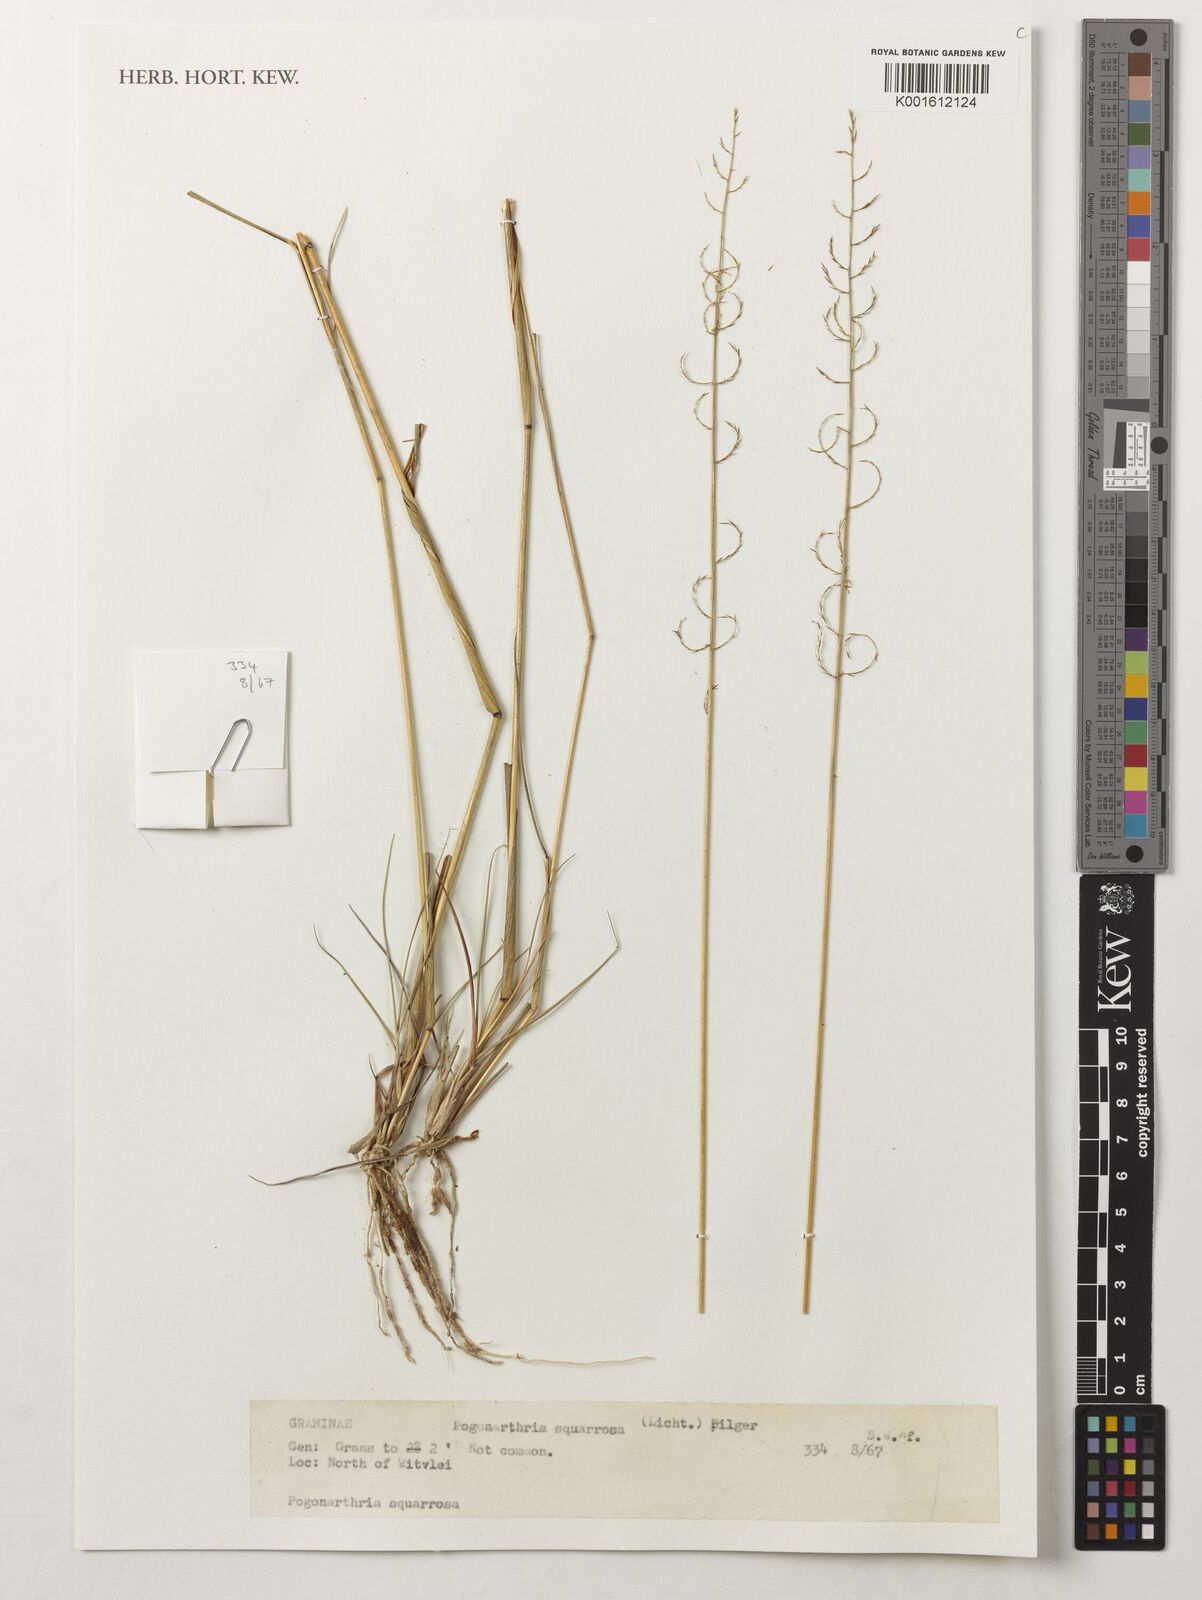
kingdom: Plantae
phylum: Tracheophyta
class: Liliopsida
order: Poales
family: Poaceae
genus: Pogonarthria
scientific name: Pogonarthria squarrosa
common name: Grass
